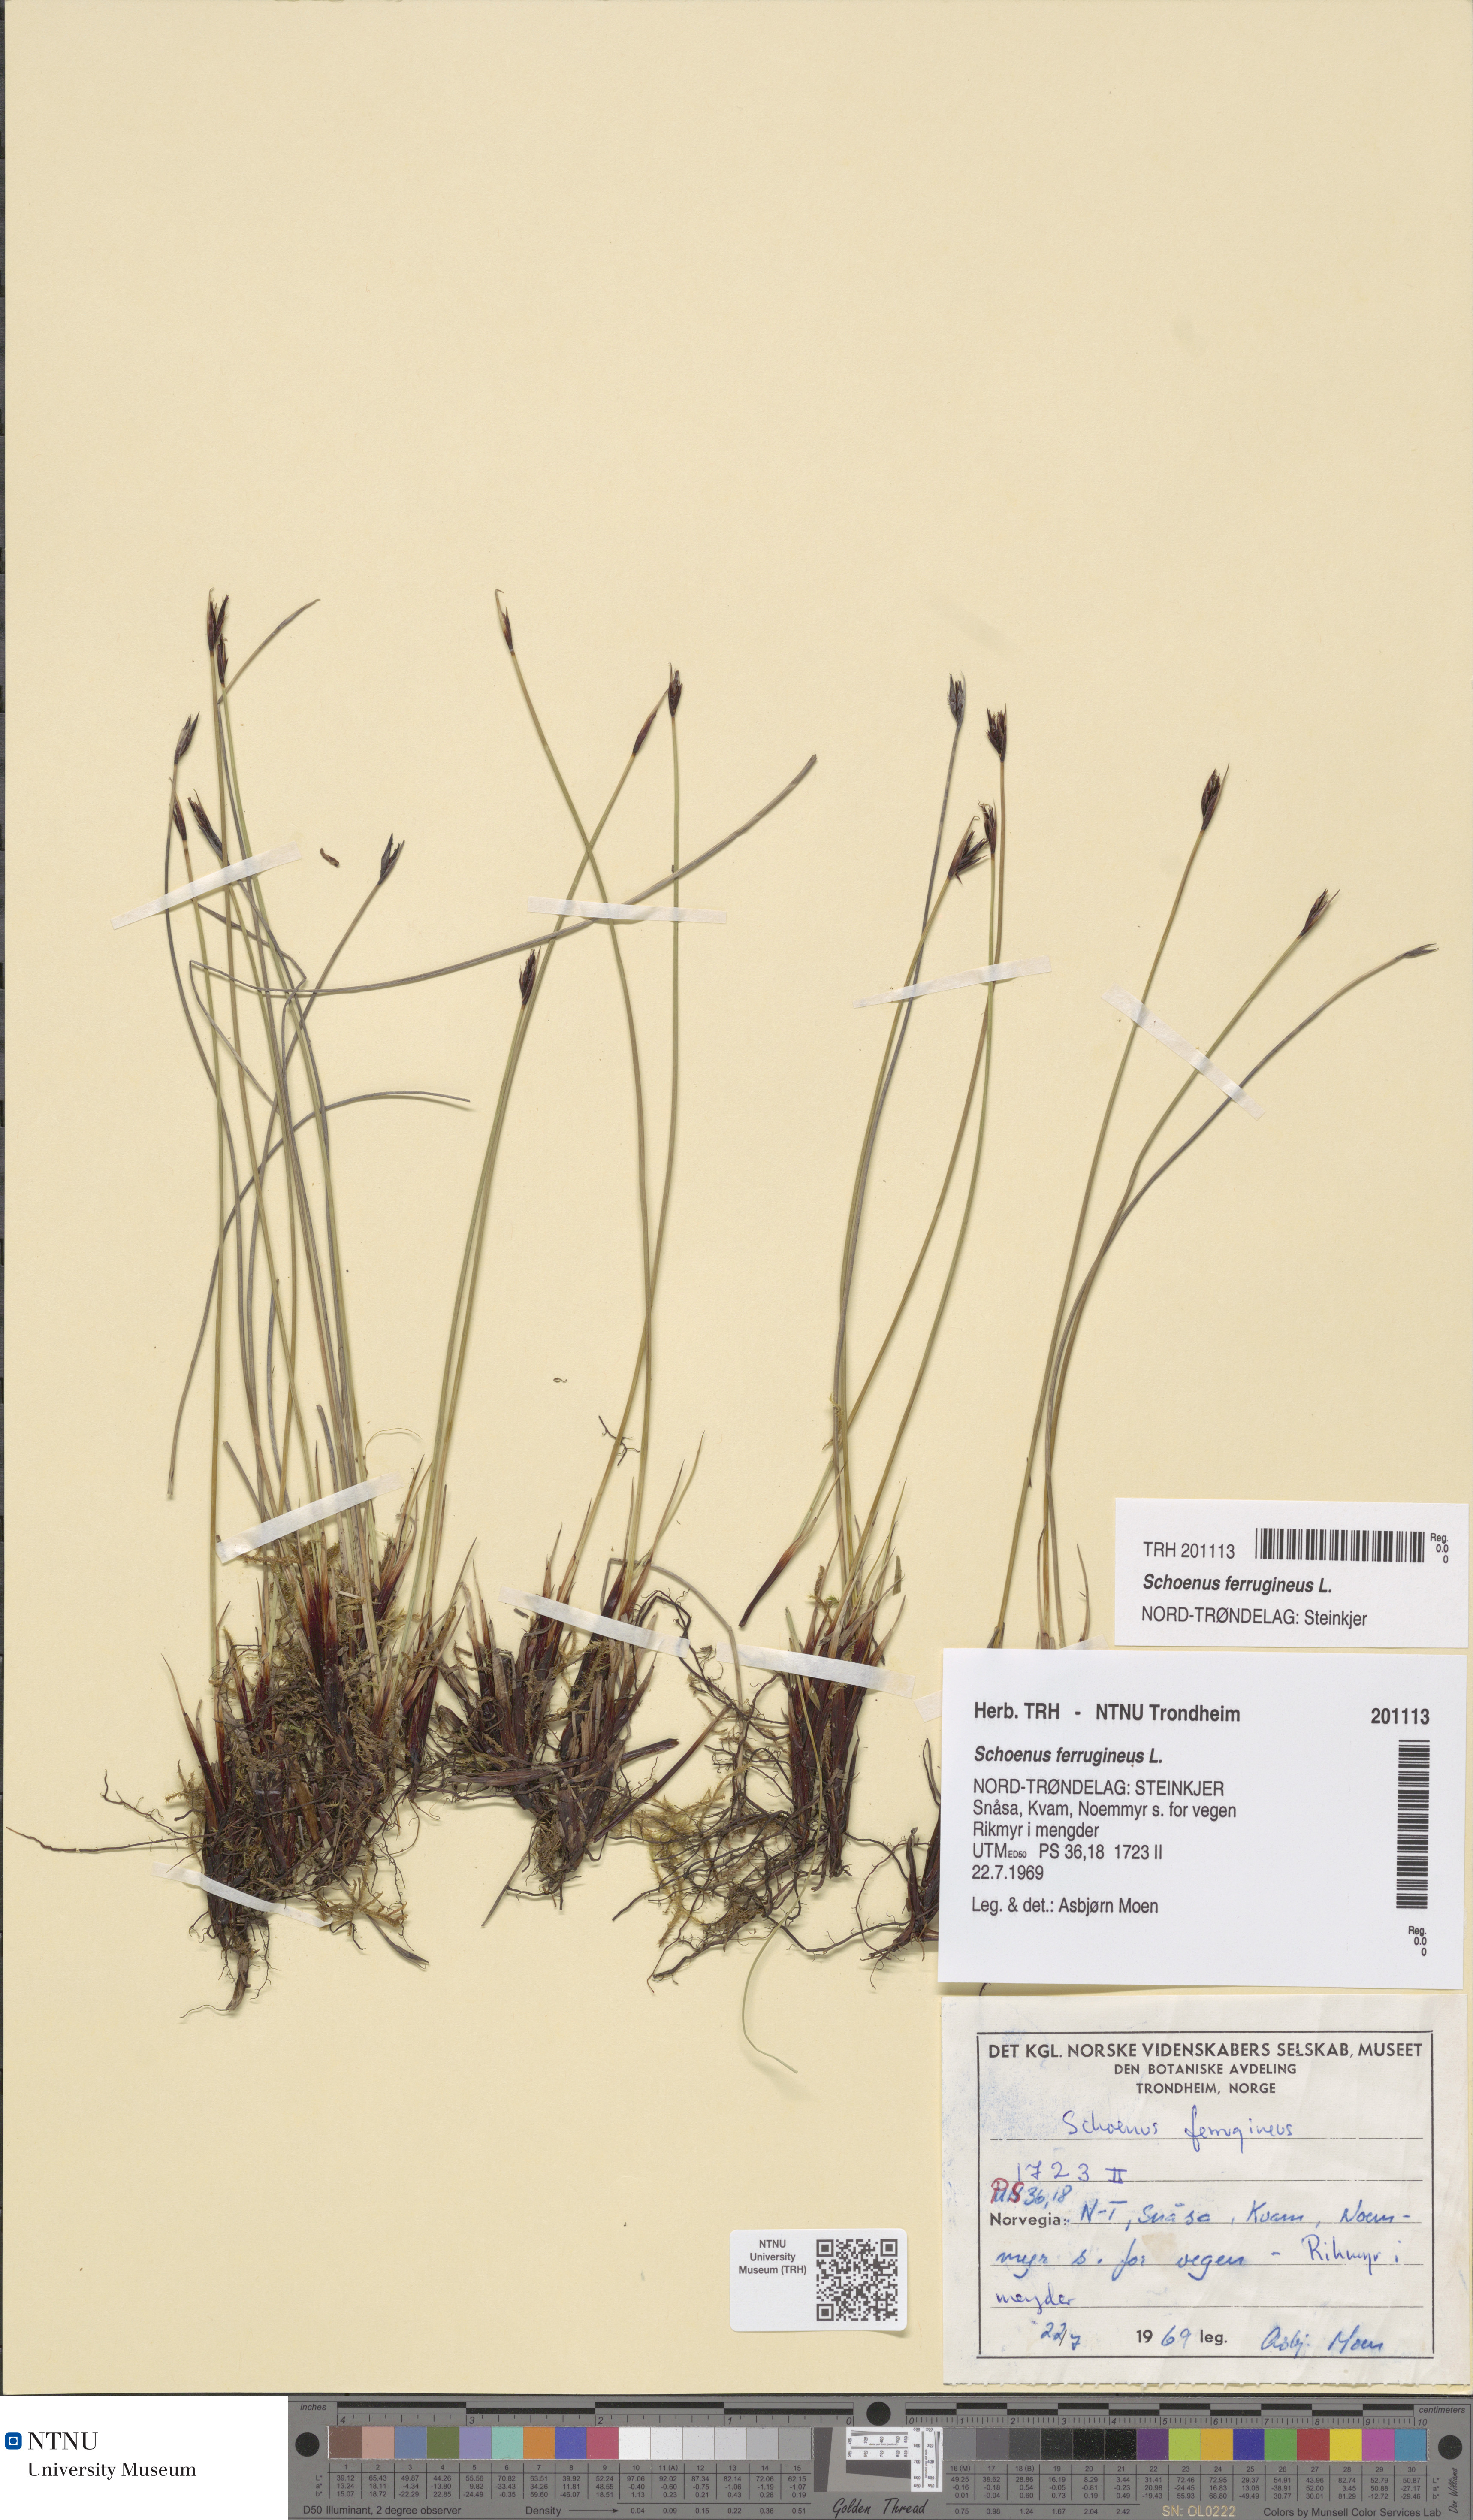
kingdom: Plantae
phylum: Tracheophyta
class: Liliopsida
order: Poales
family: Cyperaceae
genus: Schoenus
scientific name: Schoenus ferrugineus
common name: Brown bog-rush
